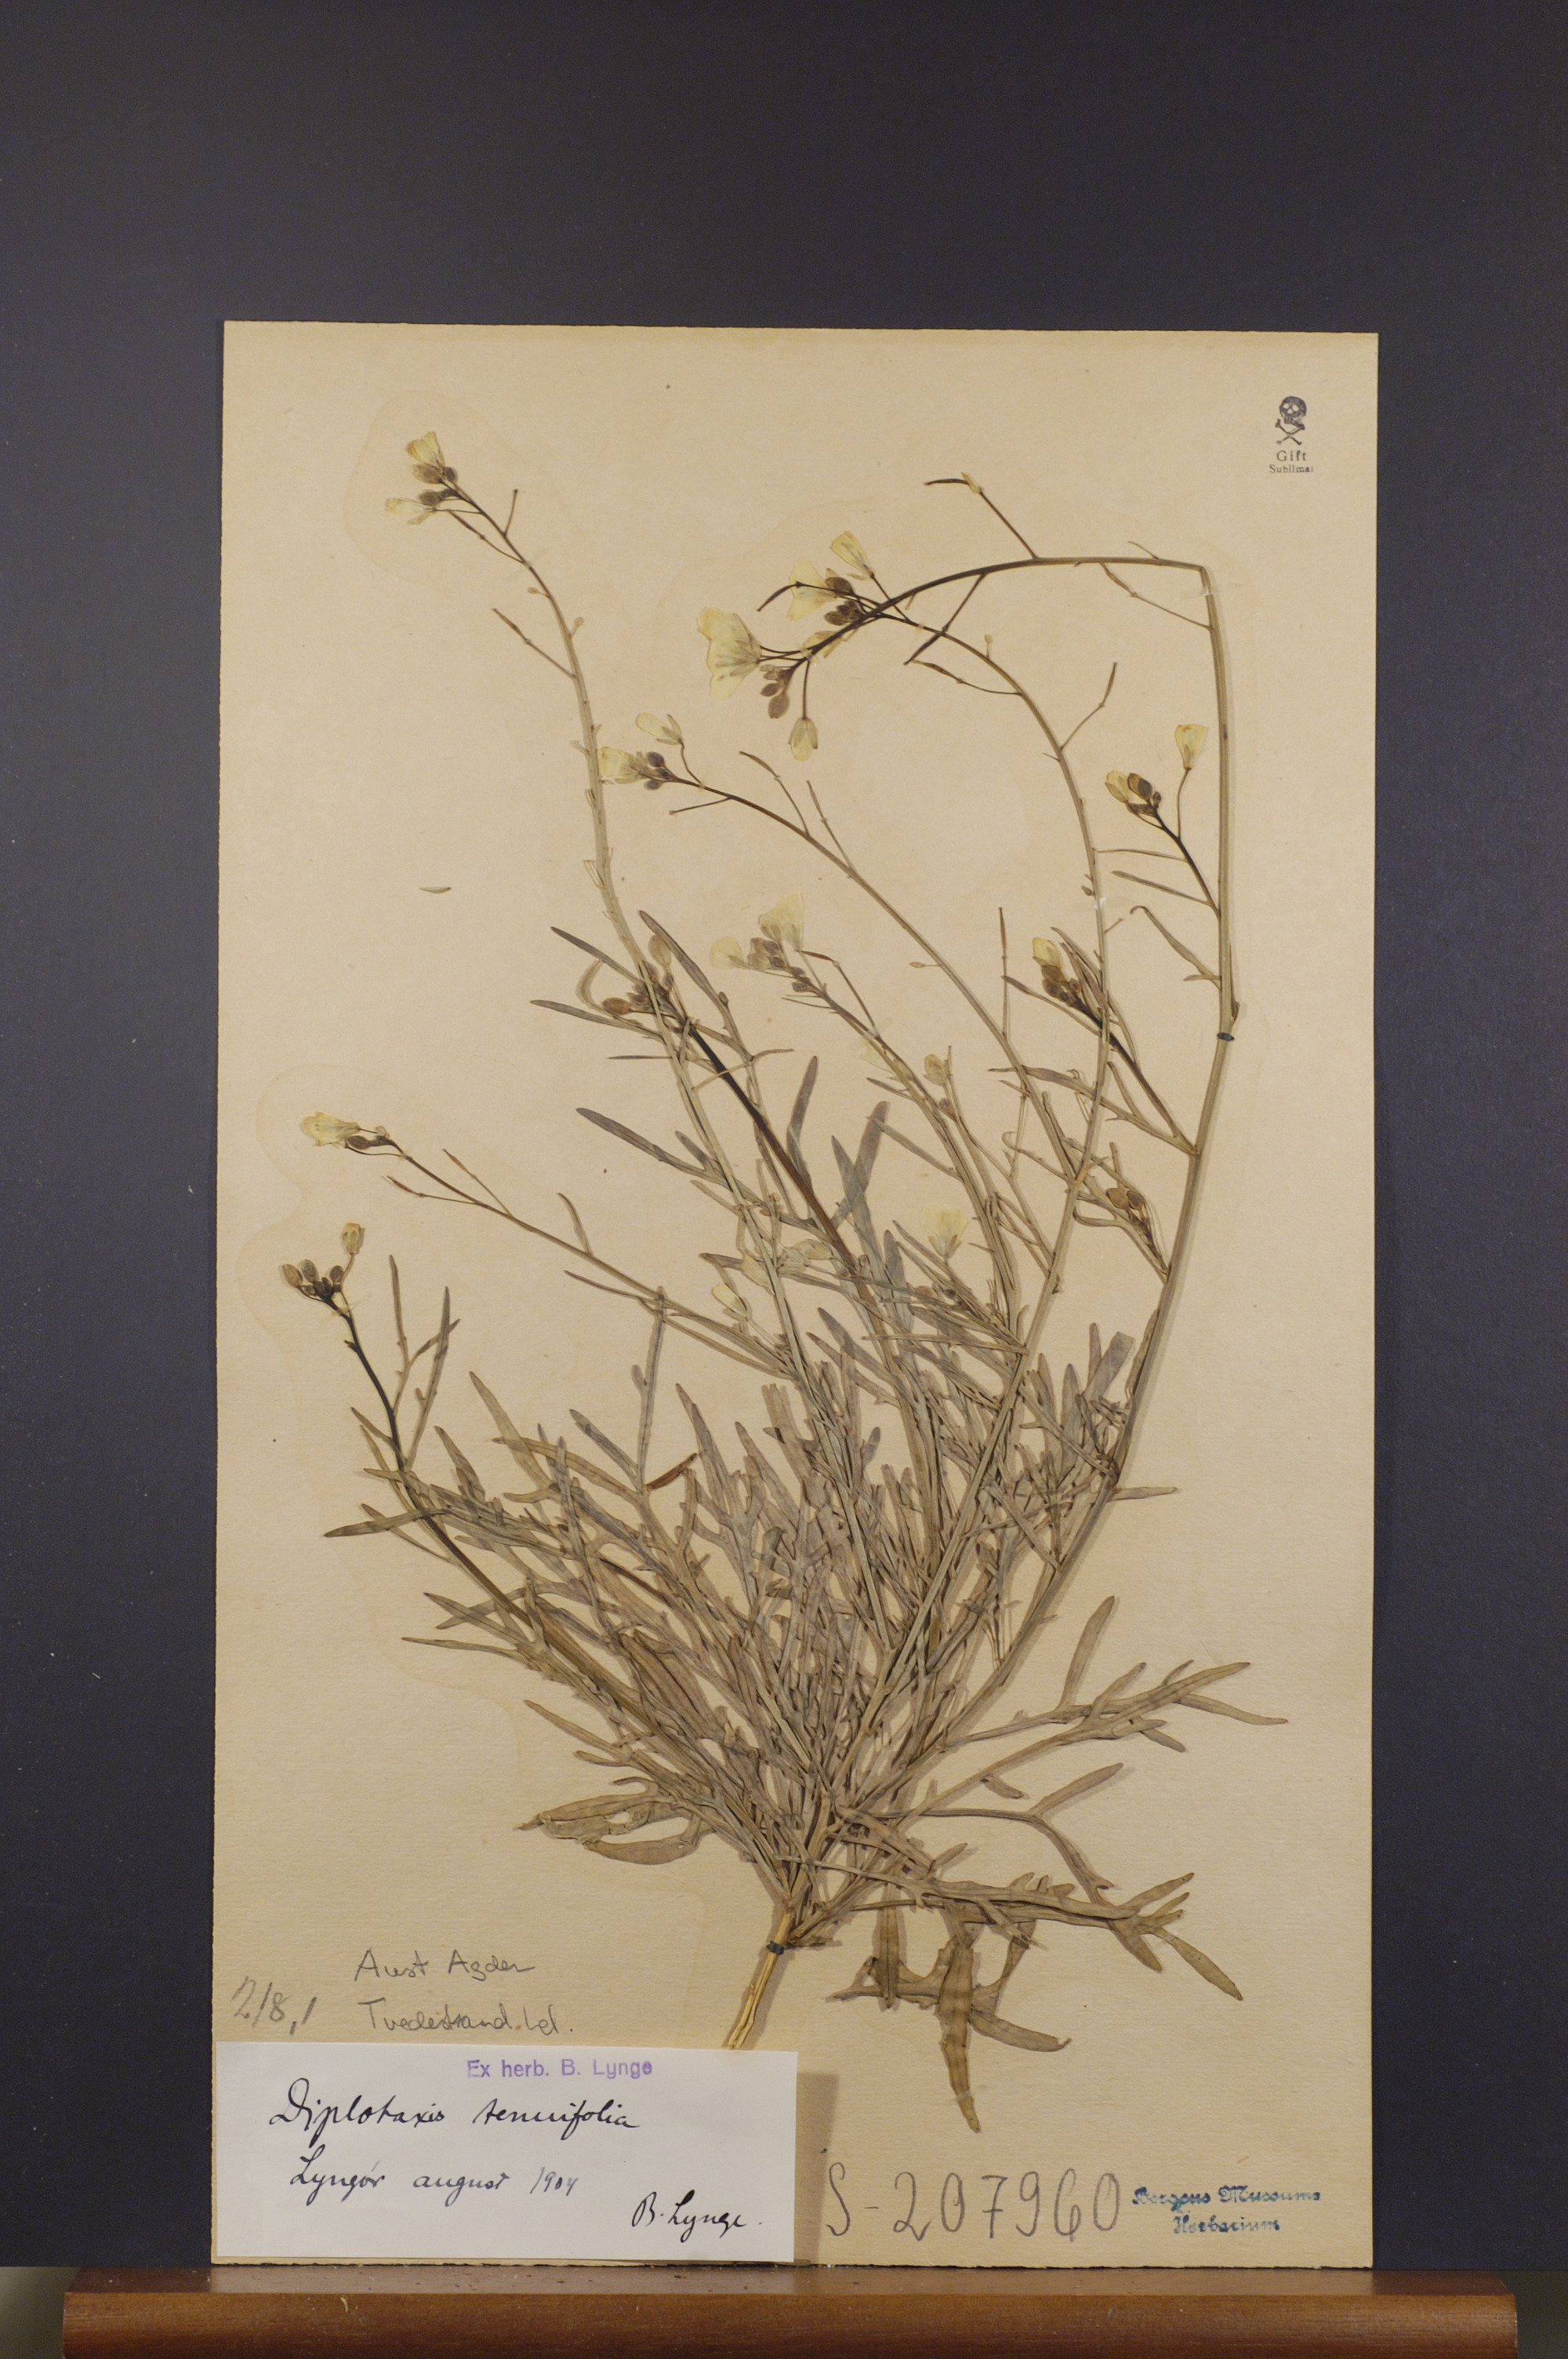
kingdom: Plantae
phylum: Tracheophyta
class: Magnoliopsida
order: Brassicales
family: Brassicaceae
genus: Diplotaxis
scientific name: Diplotaxis tenuifolia
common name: Perennial wall-rocket
